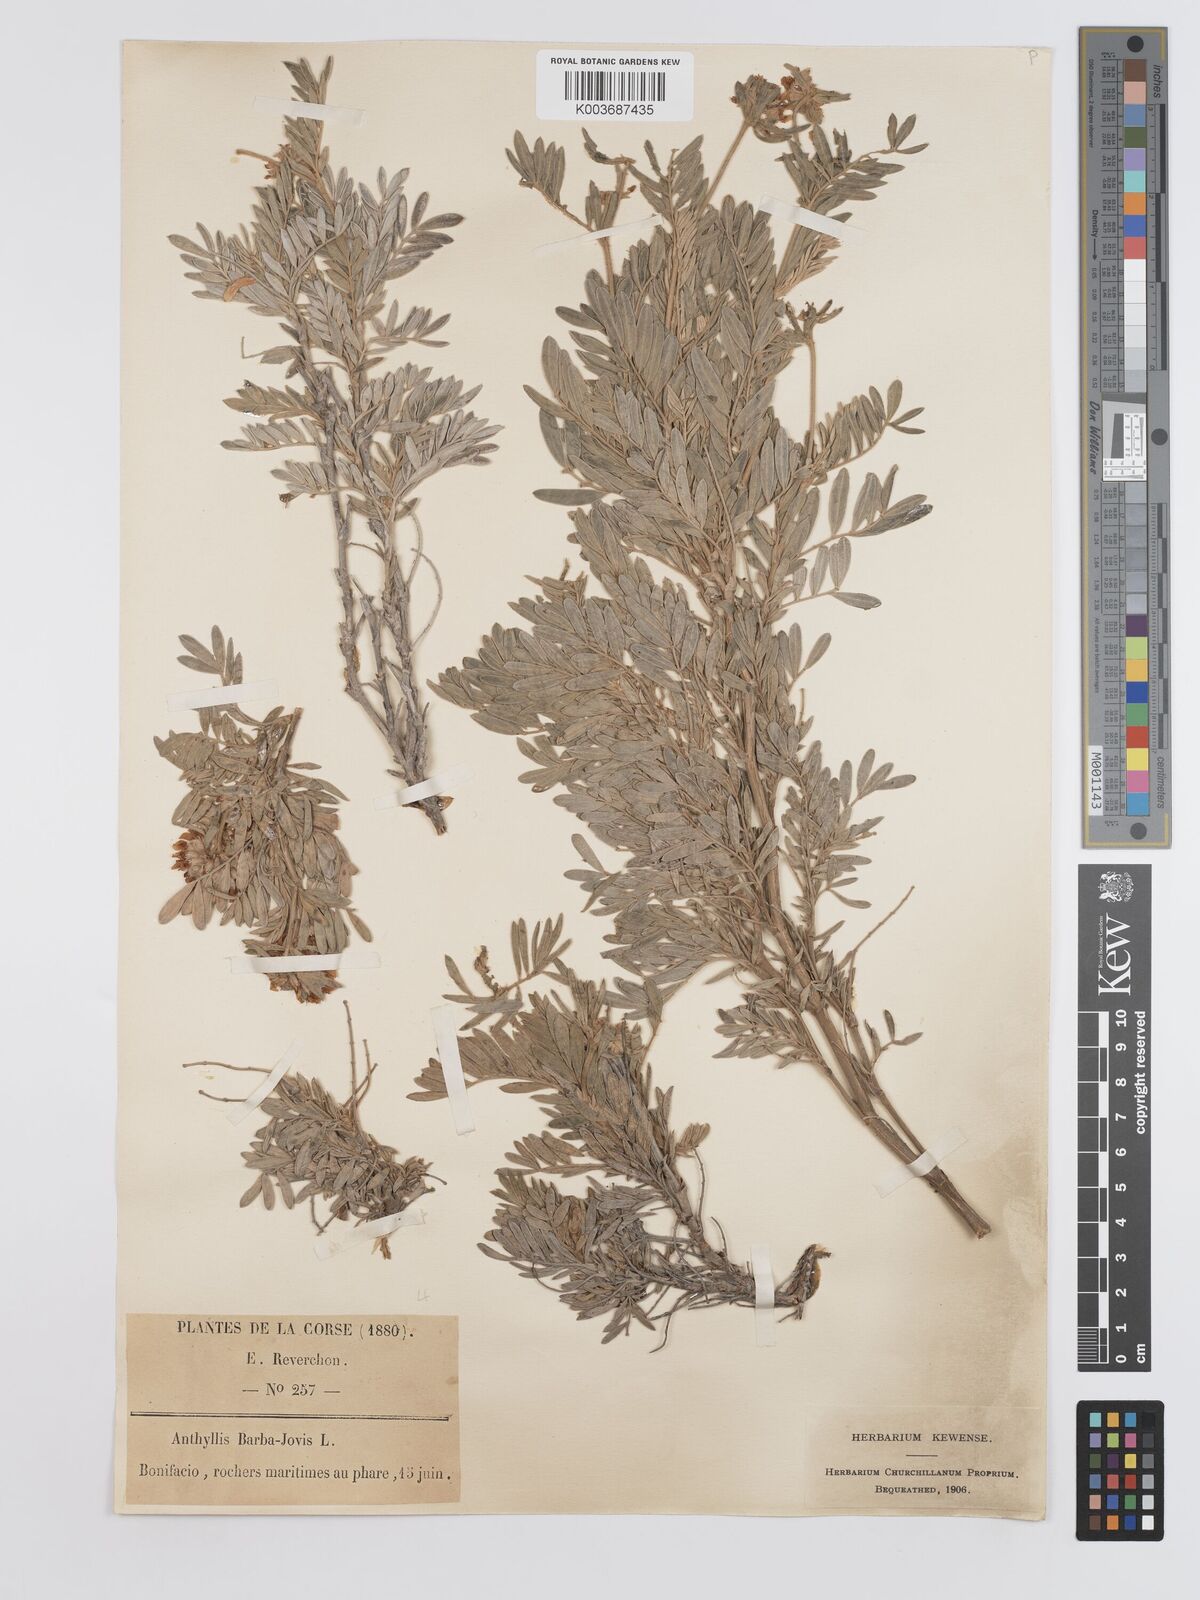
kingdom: Plantae
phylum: Tracheophyta
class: Magnoliopsida
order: Fabales
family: Fabaceae
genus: Anthyllis
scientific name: Anthyllis barba-jovis
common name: Jupiter's-beard
